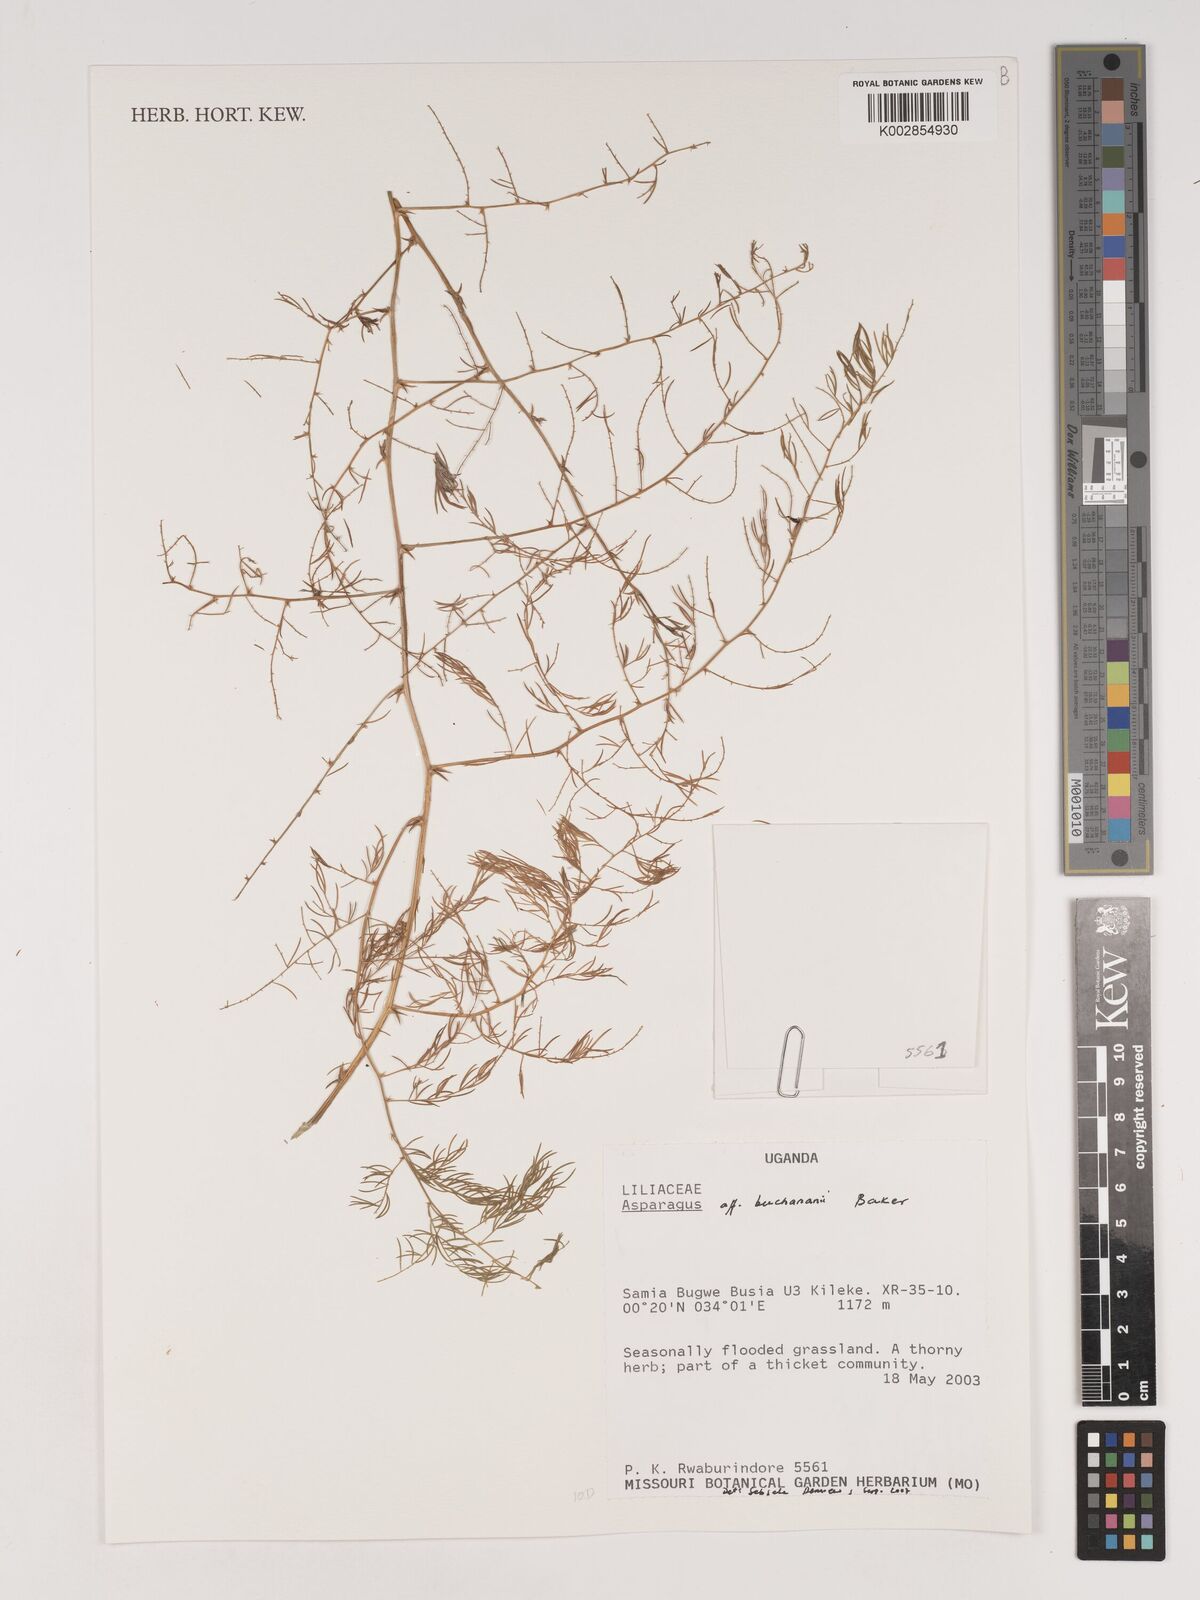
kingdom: Plantae
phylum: Tracheophyta
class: Liliopsida
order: Asparagales
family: Asparagaceae
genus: Asparagus
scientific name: Asparagus buchananii
